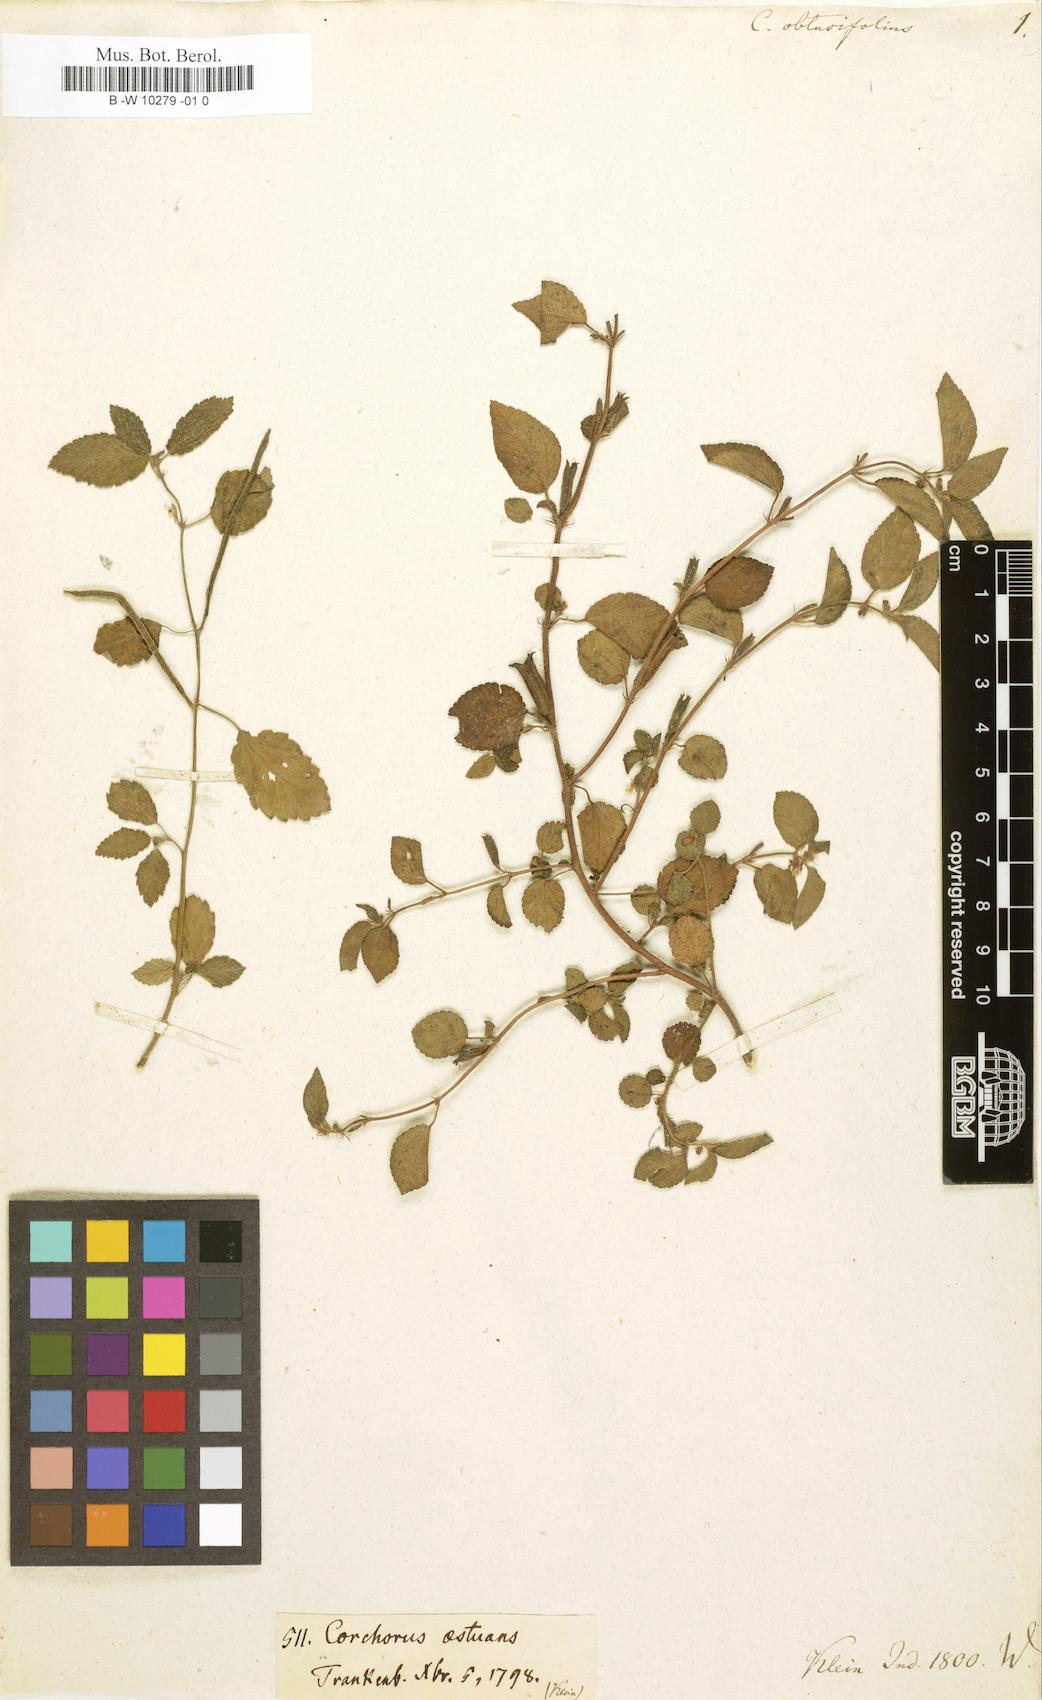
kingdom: Plantae
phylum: Tracheophyta
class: Magnoliopsida
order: Malvales
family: Malvaceae
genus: Corchorus
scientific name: Corchorus
